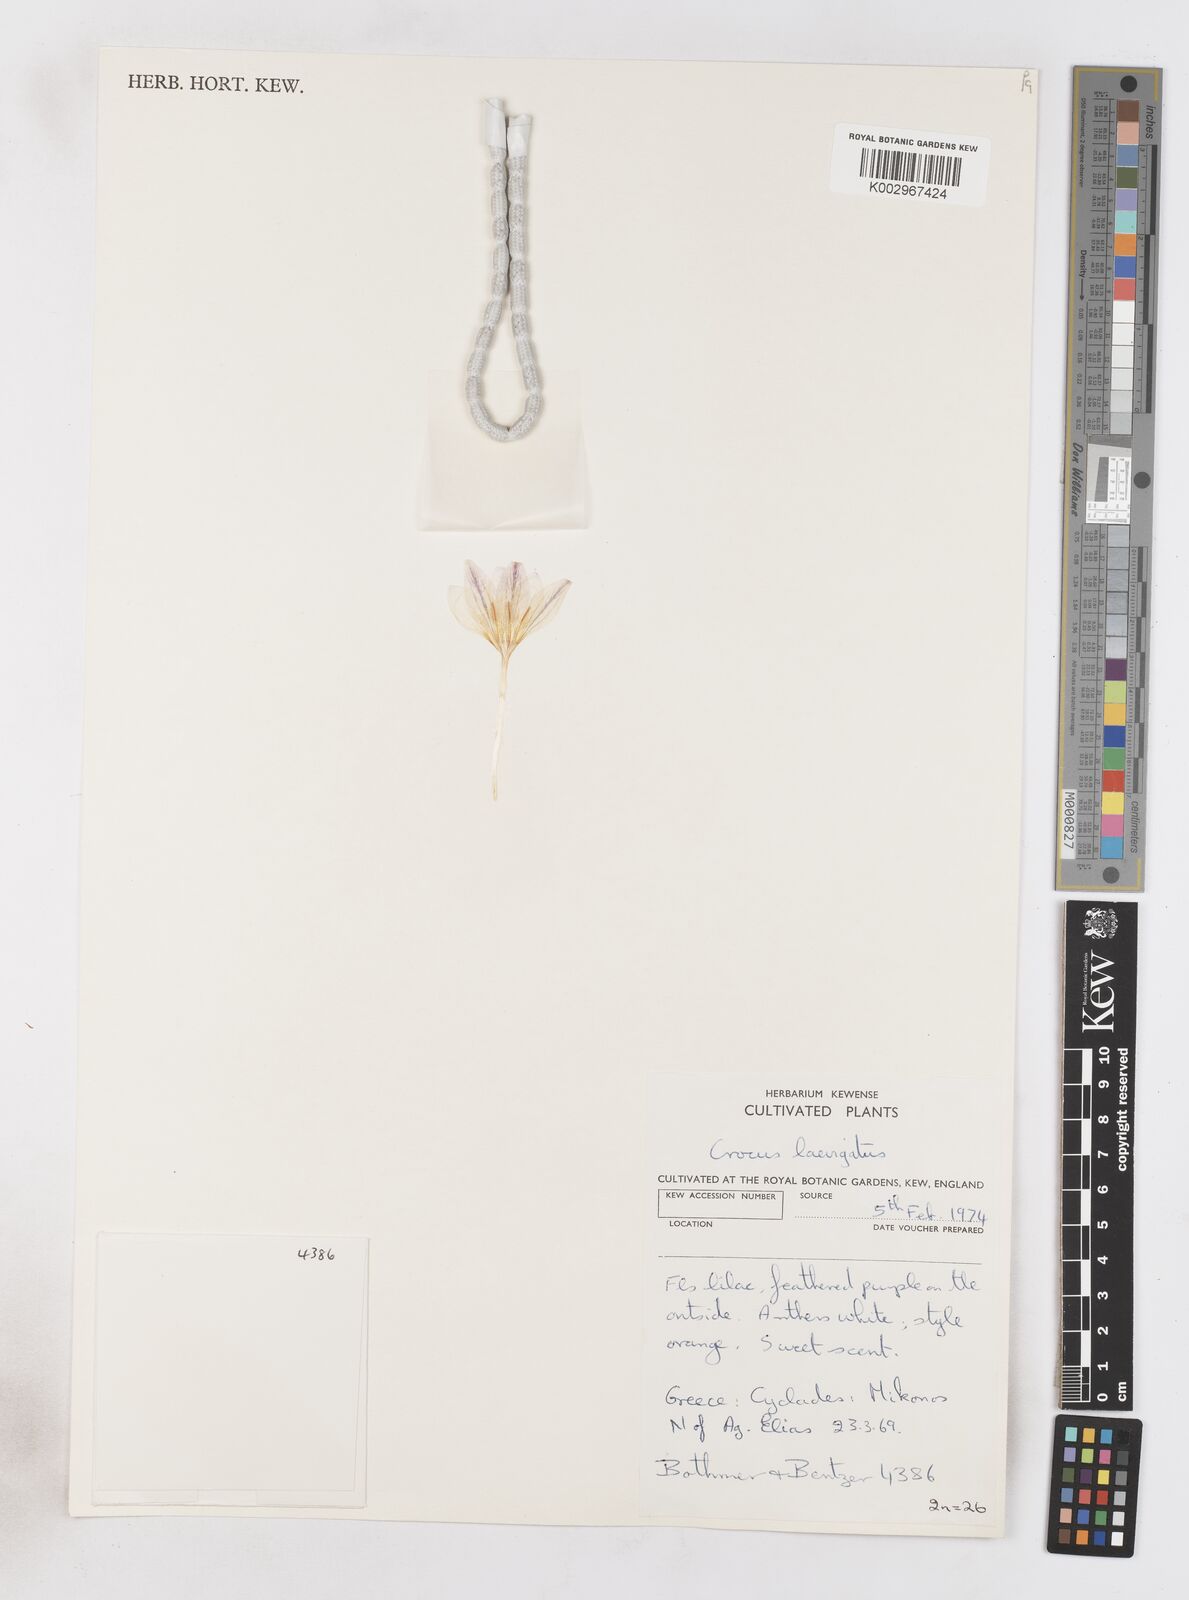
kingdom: Plantae
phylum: Tracheophyta
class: Liliopsida
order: Asparagales
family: Iridaceae
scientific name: Iridaceae
